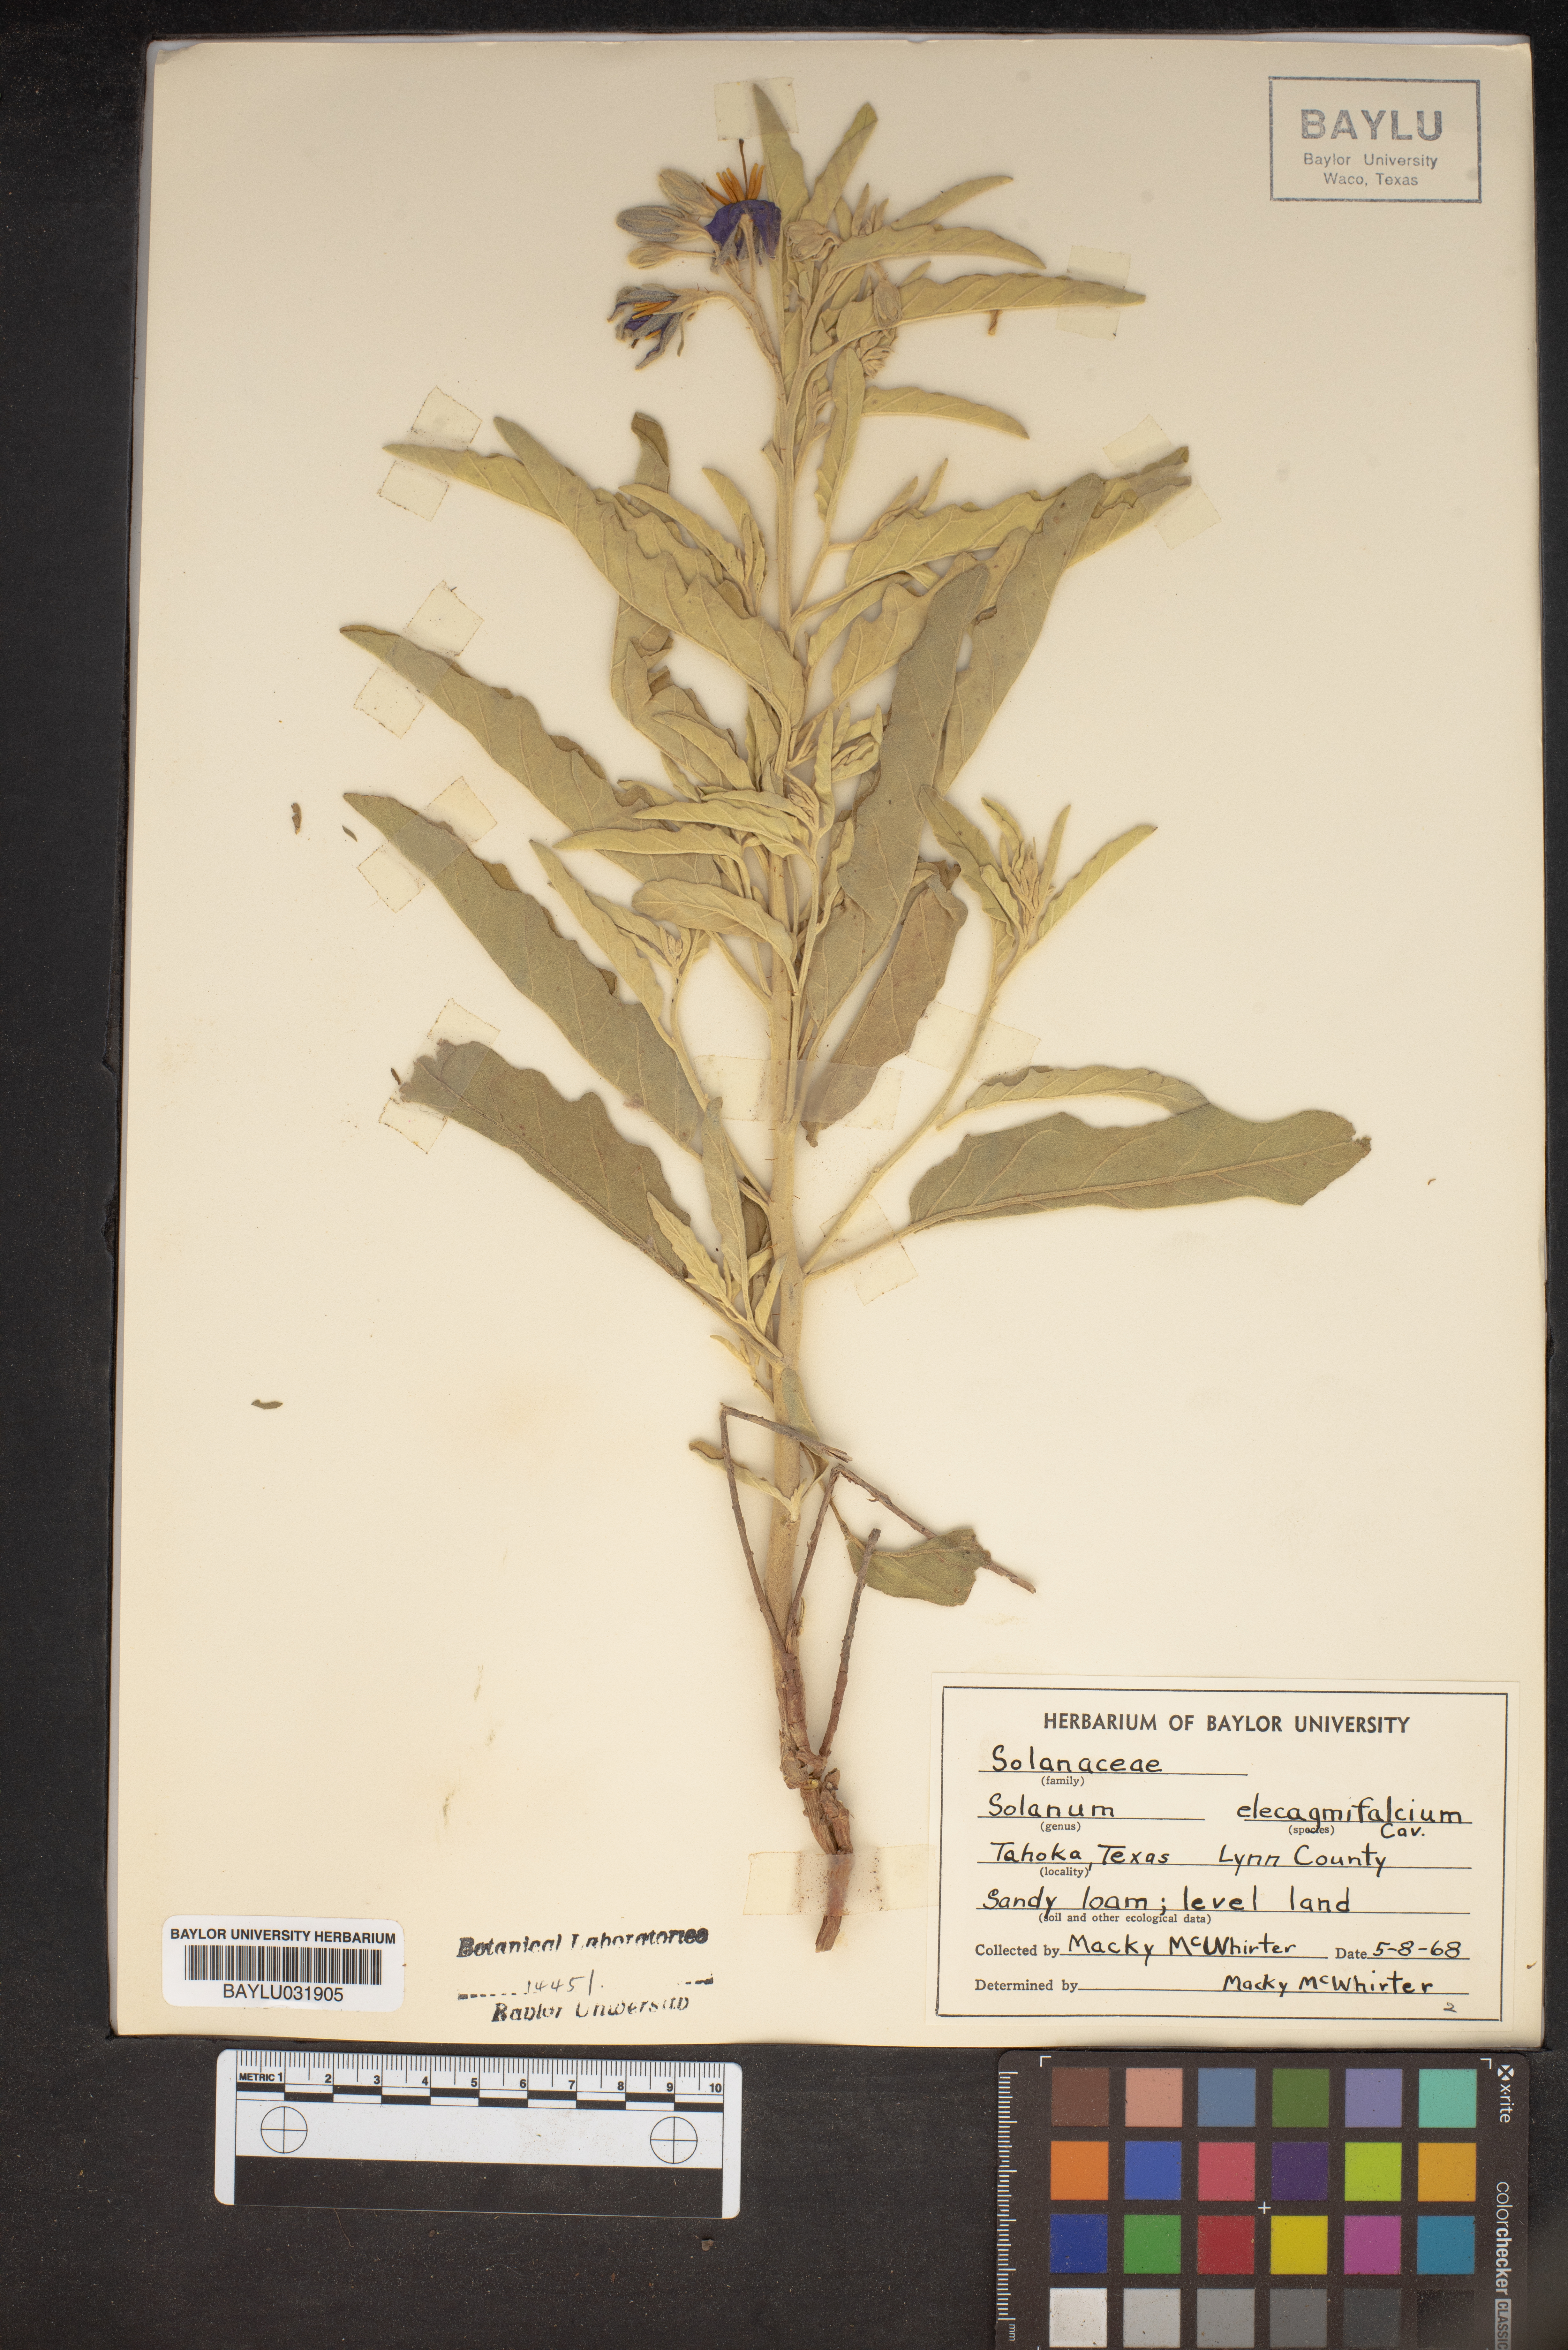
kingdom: Plantae
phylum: Tracheophyta
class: Magnoliopsida
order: Solanales
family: Solanaceae
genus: Solanum
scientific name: Solanum elaeagnifolium
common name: Silverleaf nightshade
